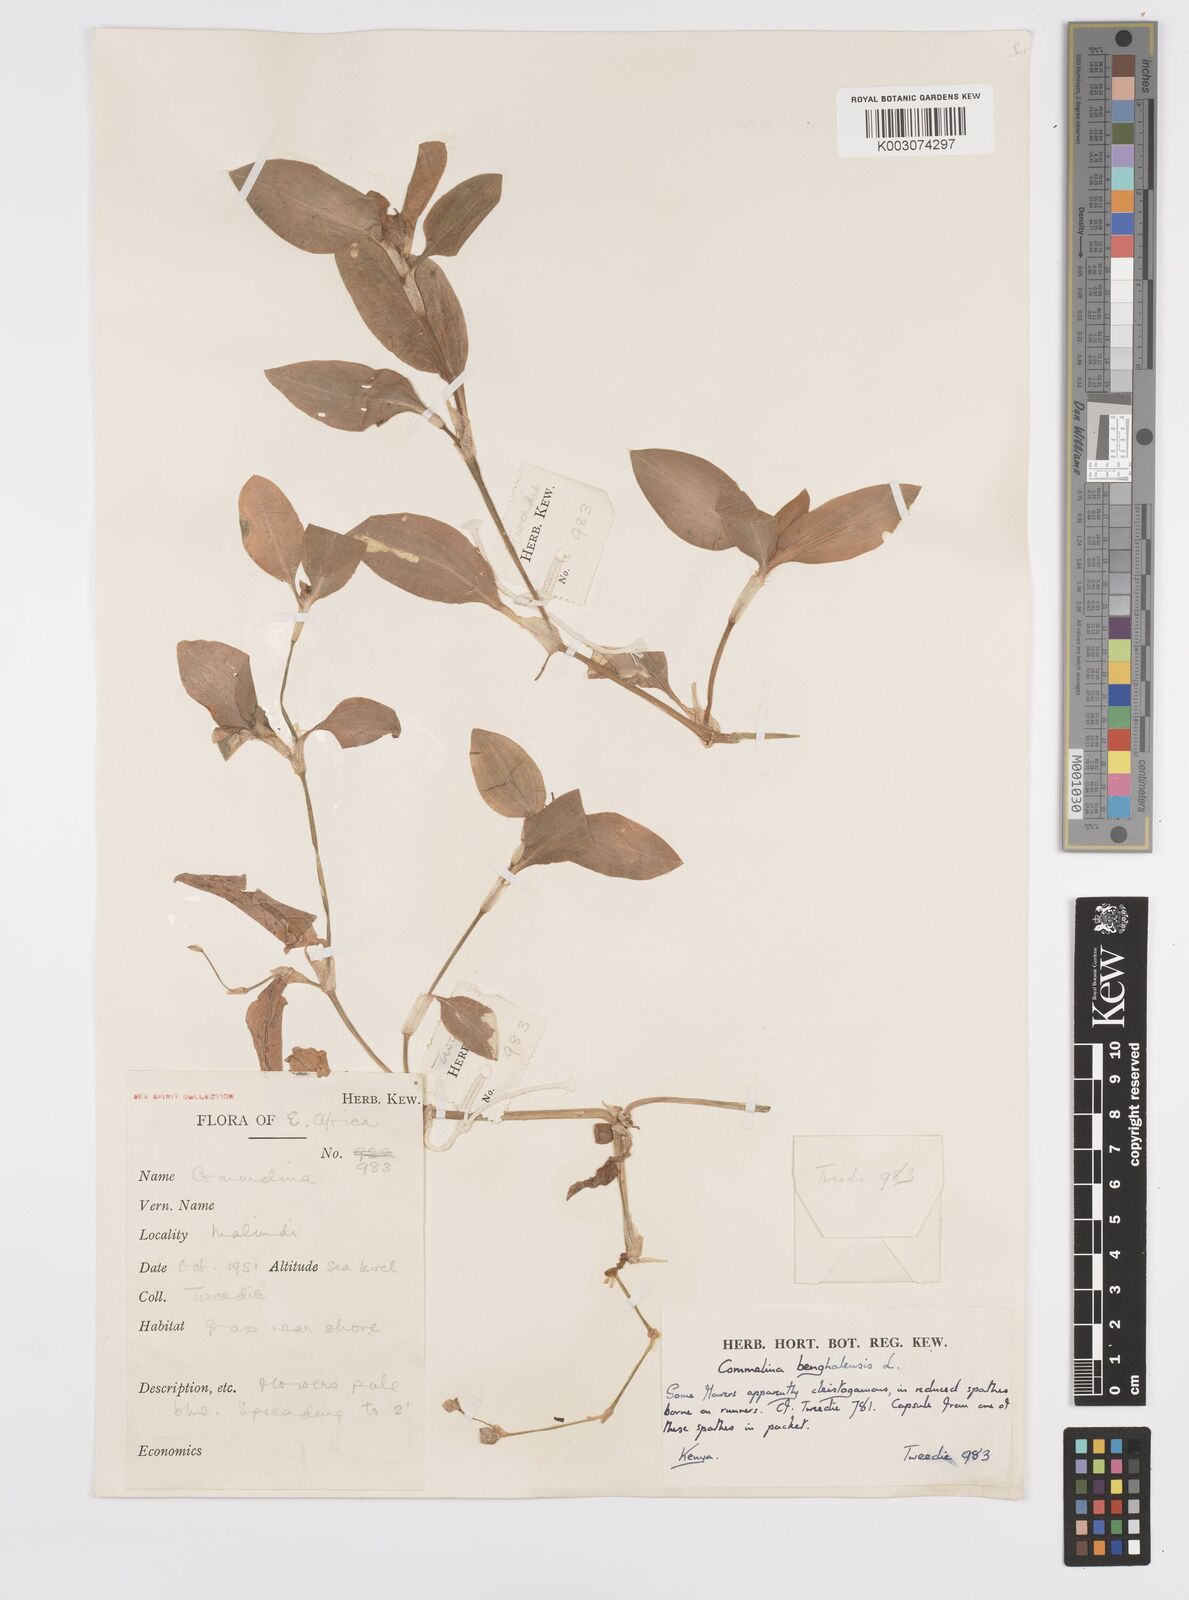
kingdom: Plantae
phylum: Tracheophyta
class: Liliopsida
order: Commelinales
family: Commelinaceae
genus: Commelina
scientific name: Commelina benghalensis
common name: Jio
